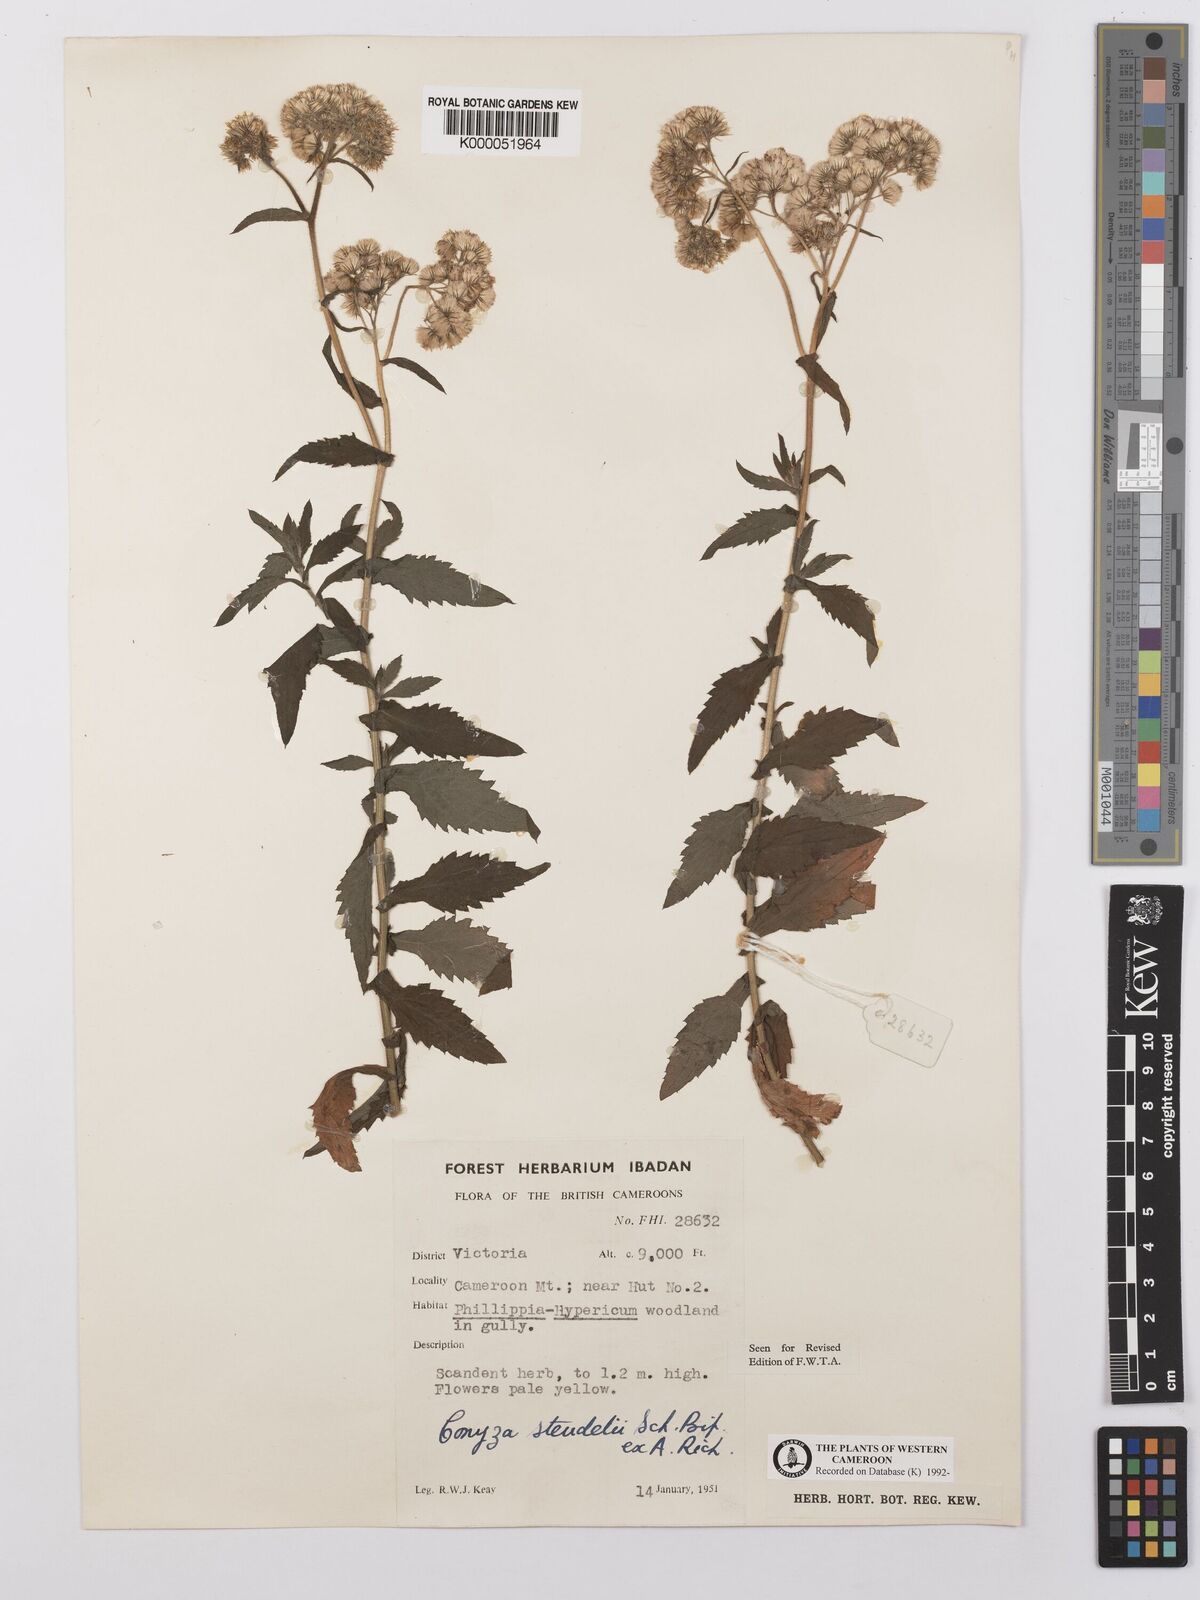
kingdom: Plantae
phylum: Tracheophyta
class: Magnoliopsida
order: Asterales
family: Asteraceae
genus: Conyza
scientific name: Conyza steudelii
